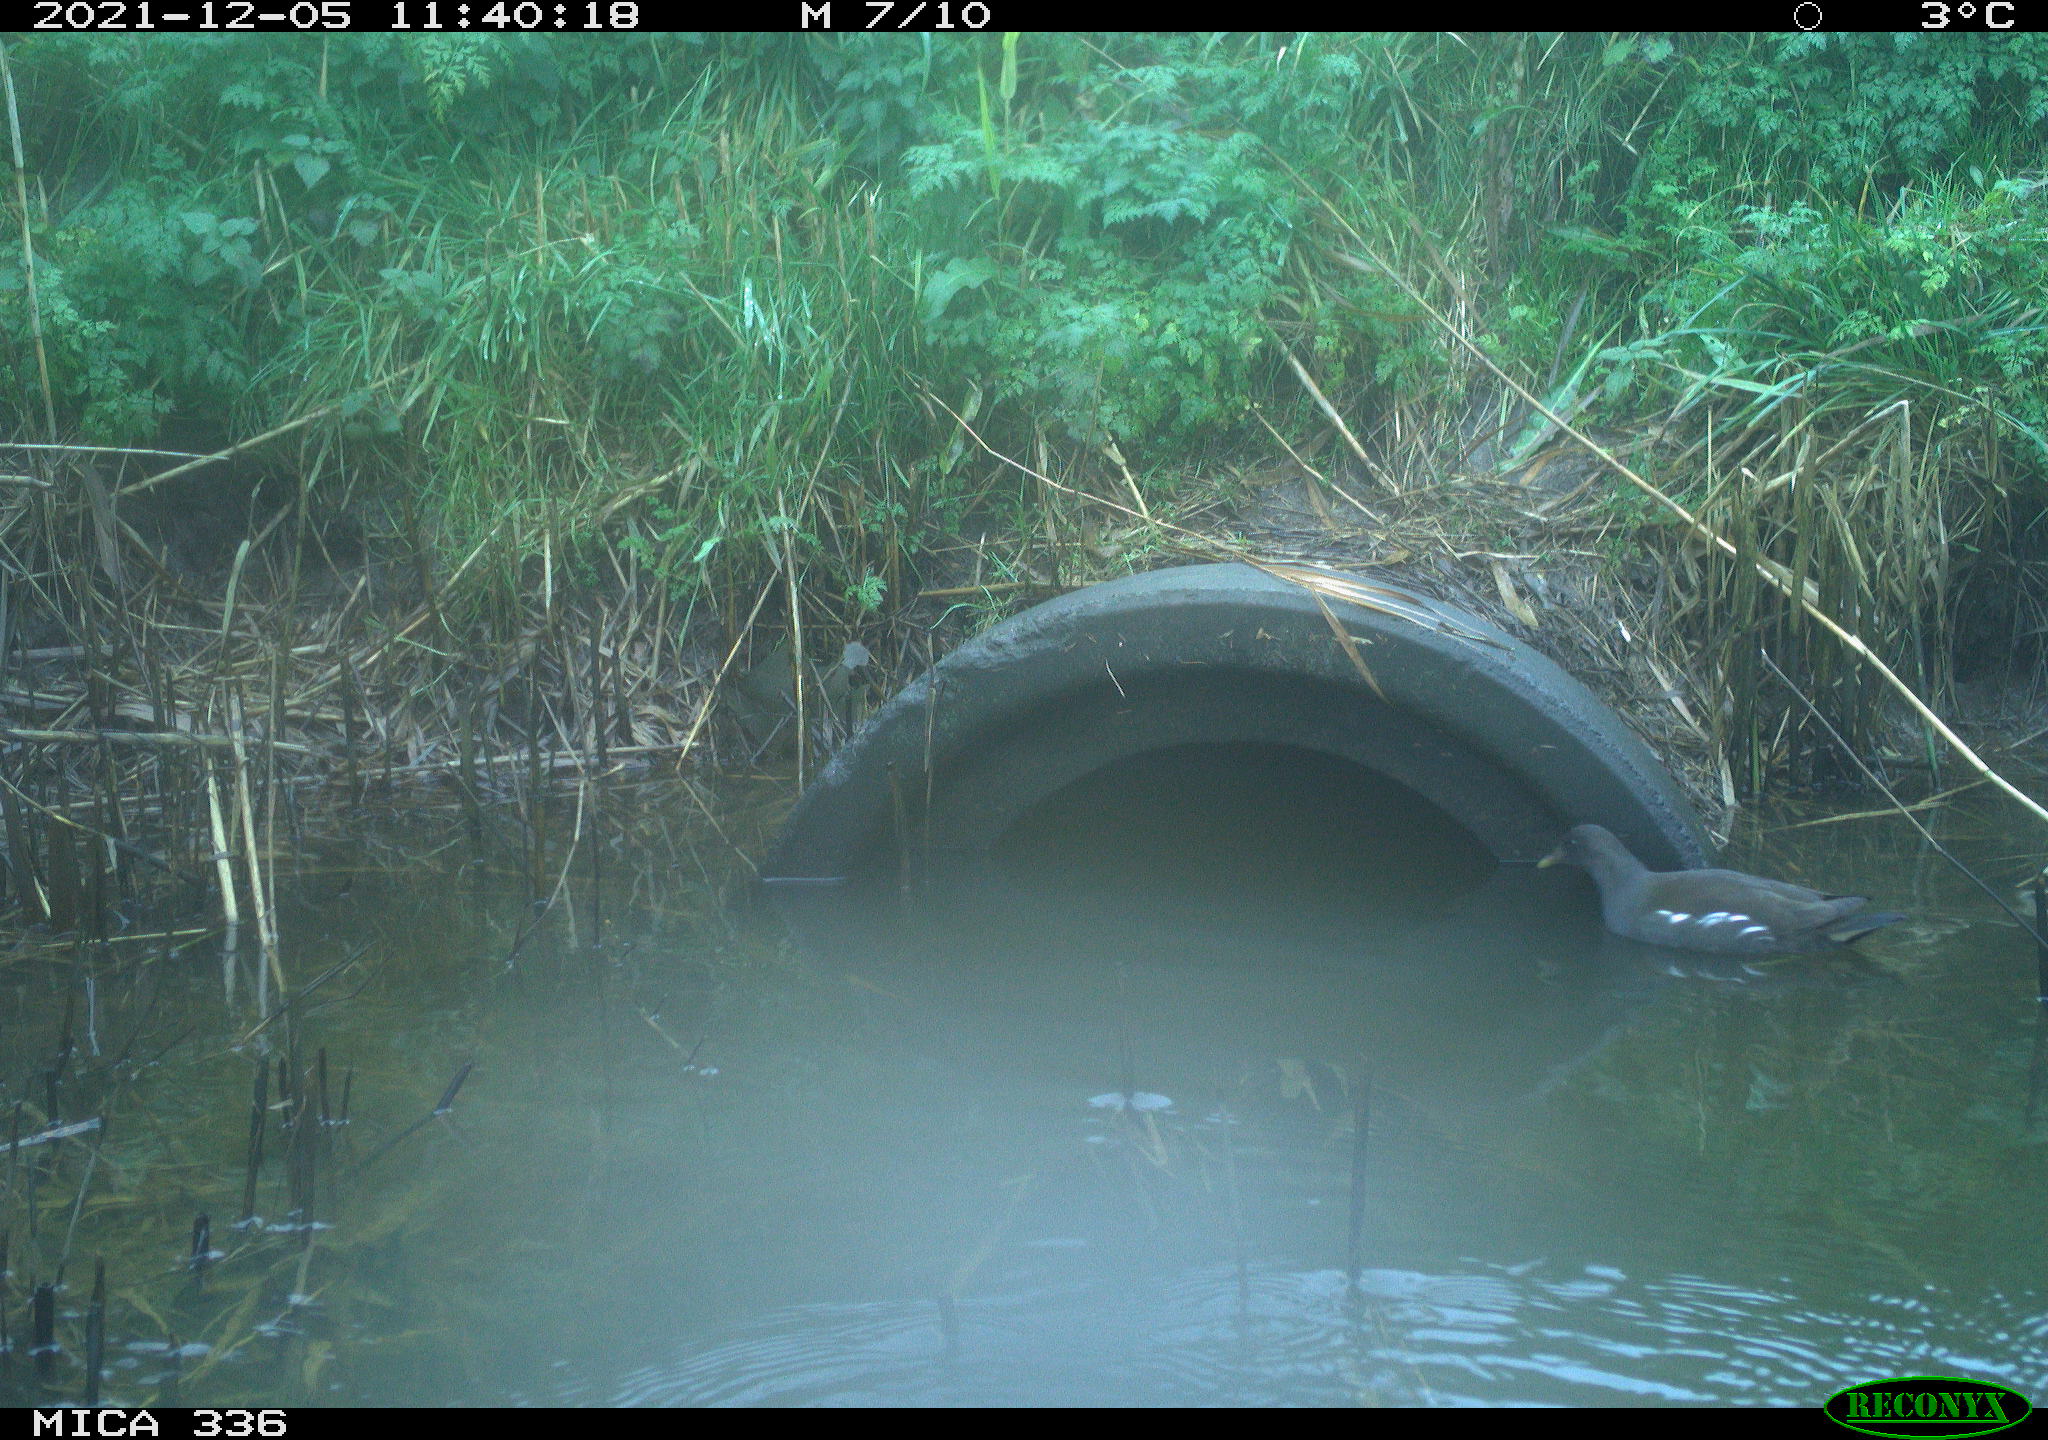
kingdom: Animalia
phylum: Chordata
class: Aves
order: Gruiformes
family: Rallidae
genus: Gallinula
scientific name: Gallinula chloropus
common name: Common moorhen
